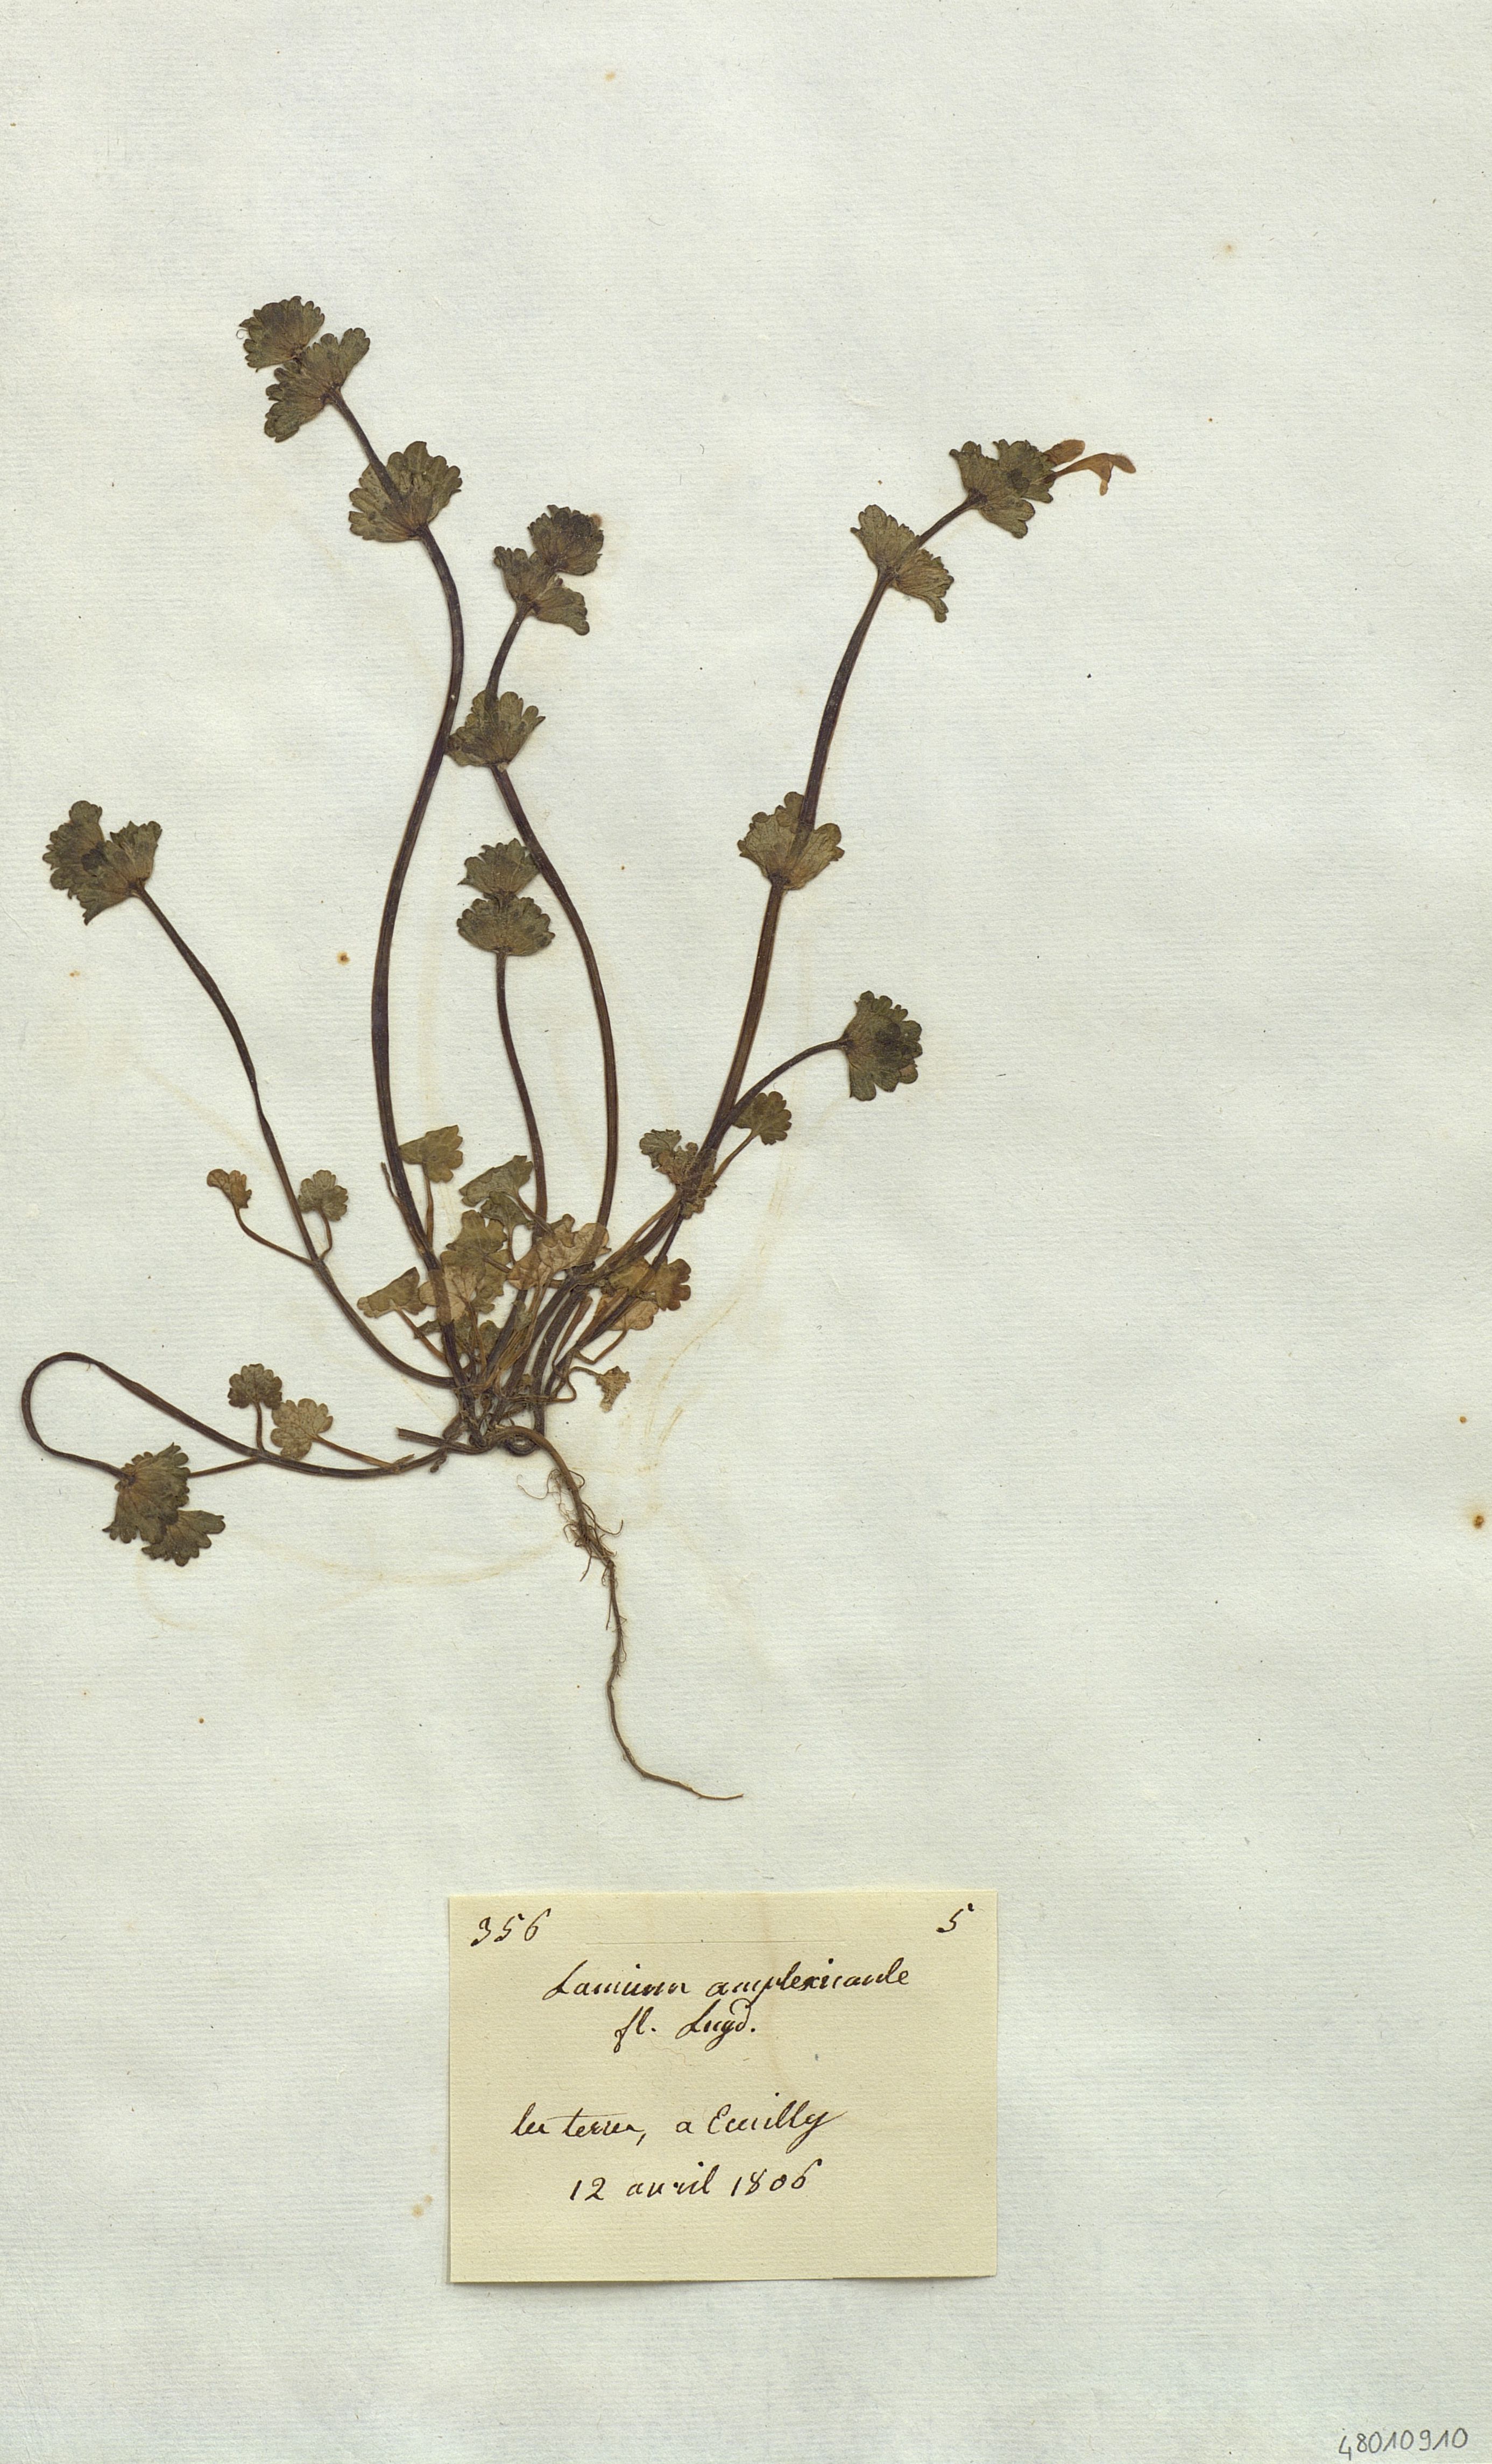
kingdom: Plantae
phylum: Tracheophyta
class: Magnoliopsida
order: Lamiales
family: Lamiaceae
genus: Lamium
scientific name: Lamium amplexicaule
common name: Henbit dead-nettle
